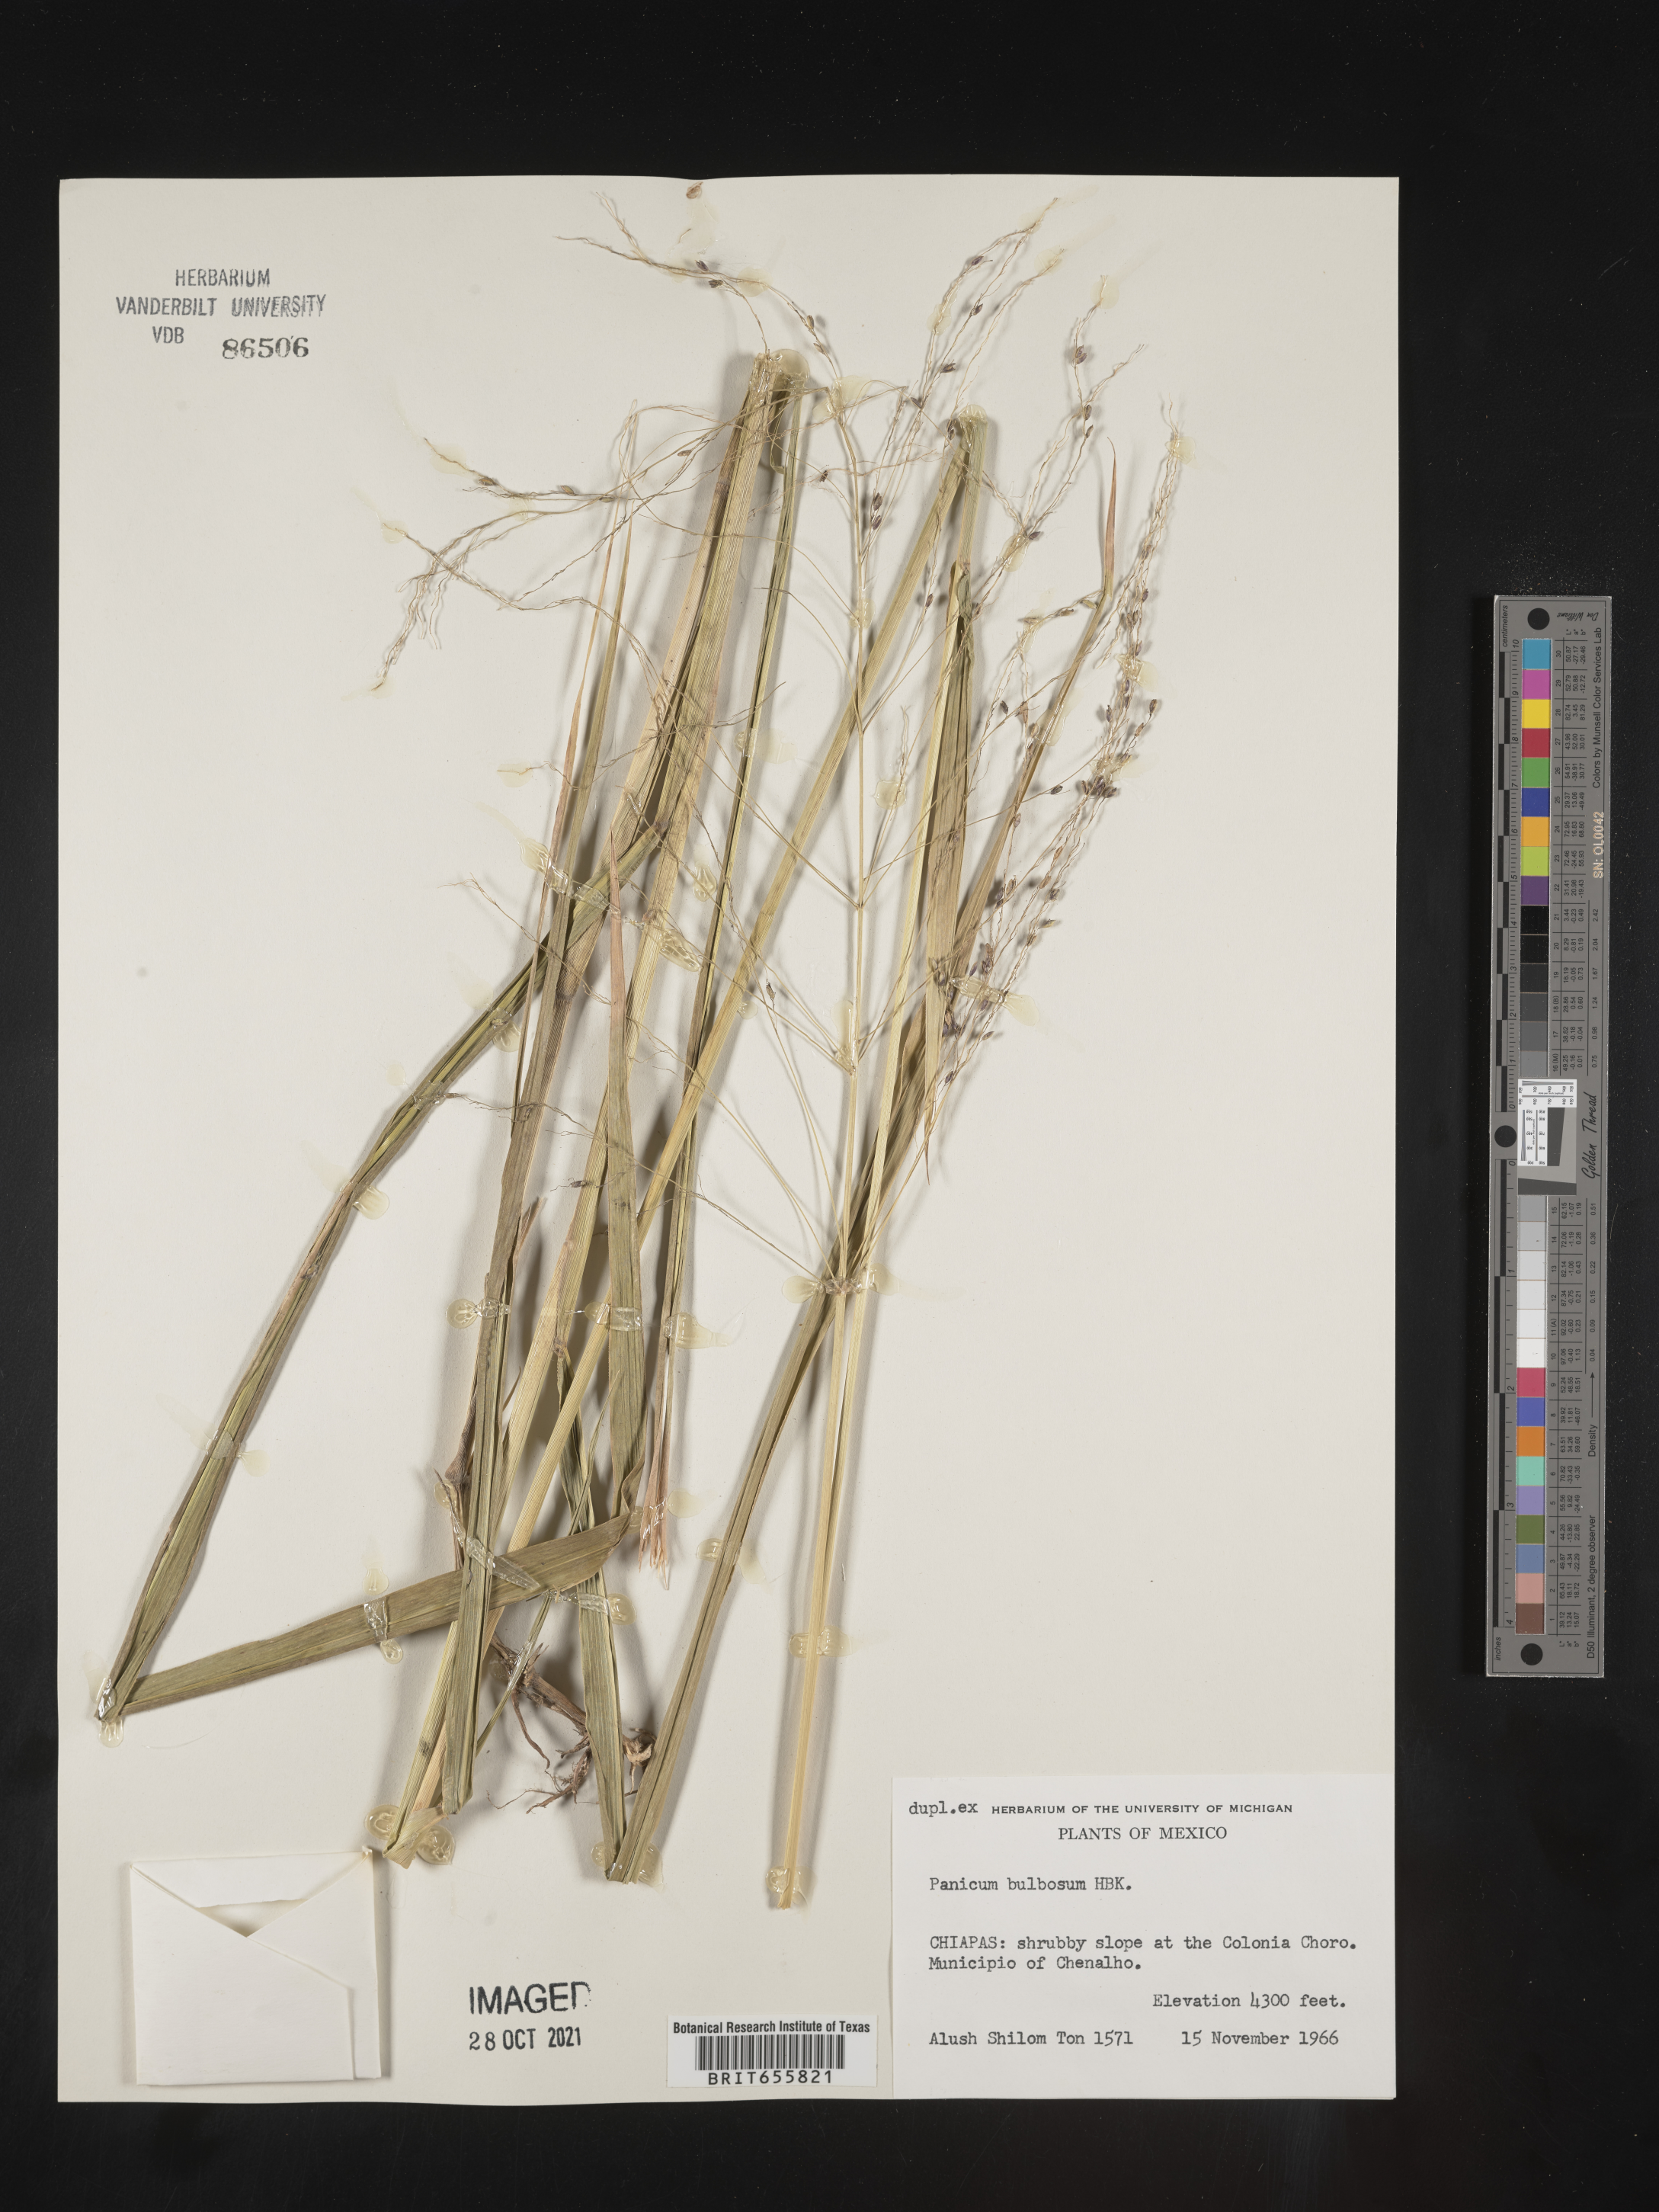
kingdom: Plantae
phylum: Tracheophyta
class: Liliopsida
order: Poales
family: Poaceae
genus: Panicum
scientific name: Panicum
